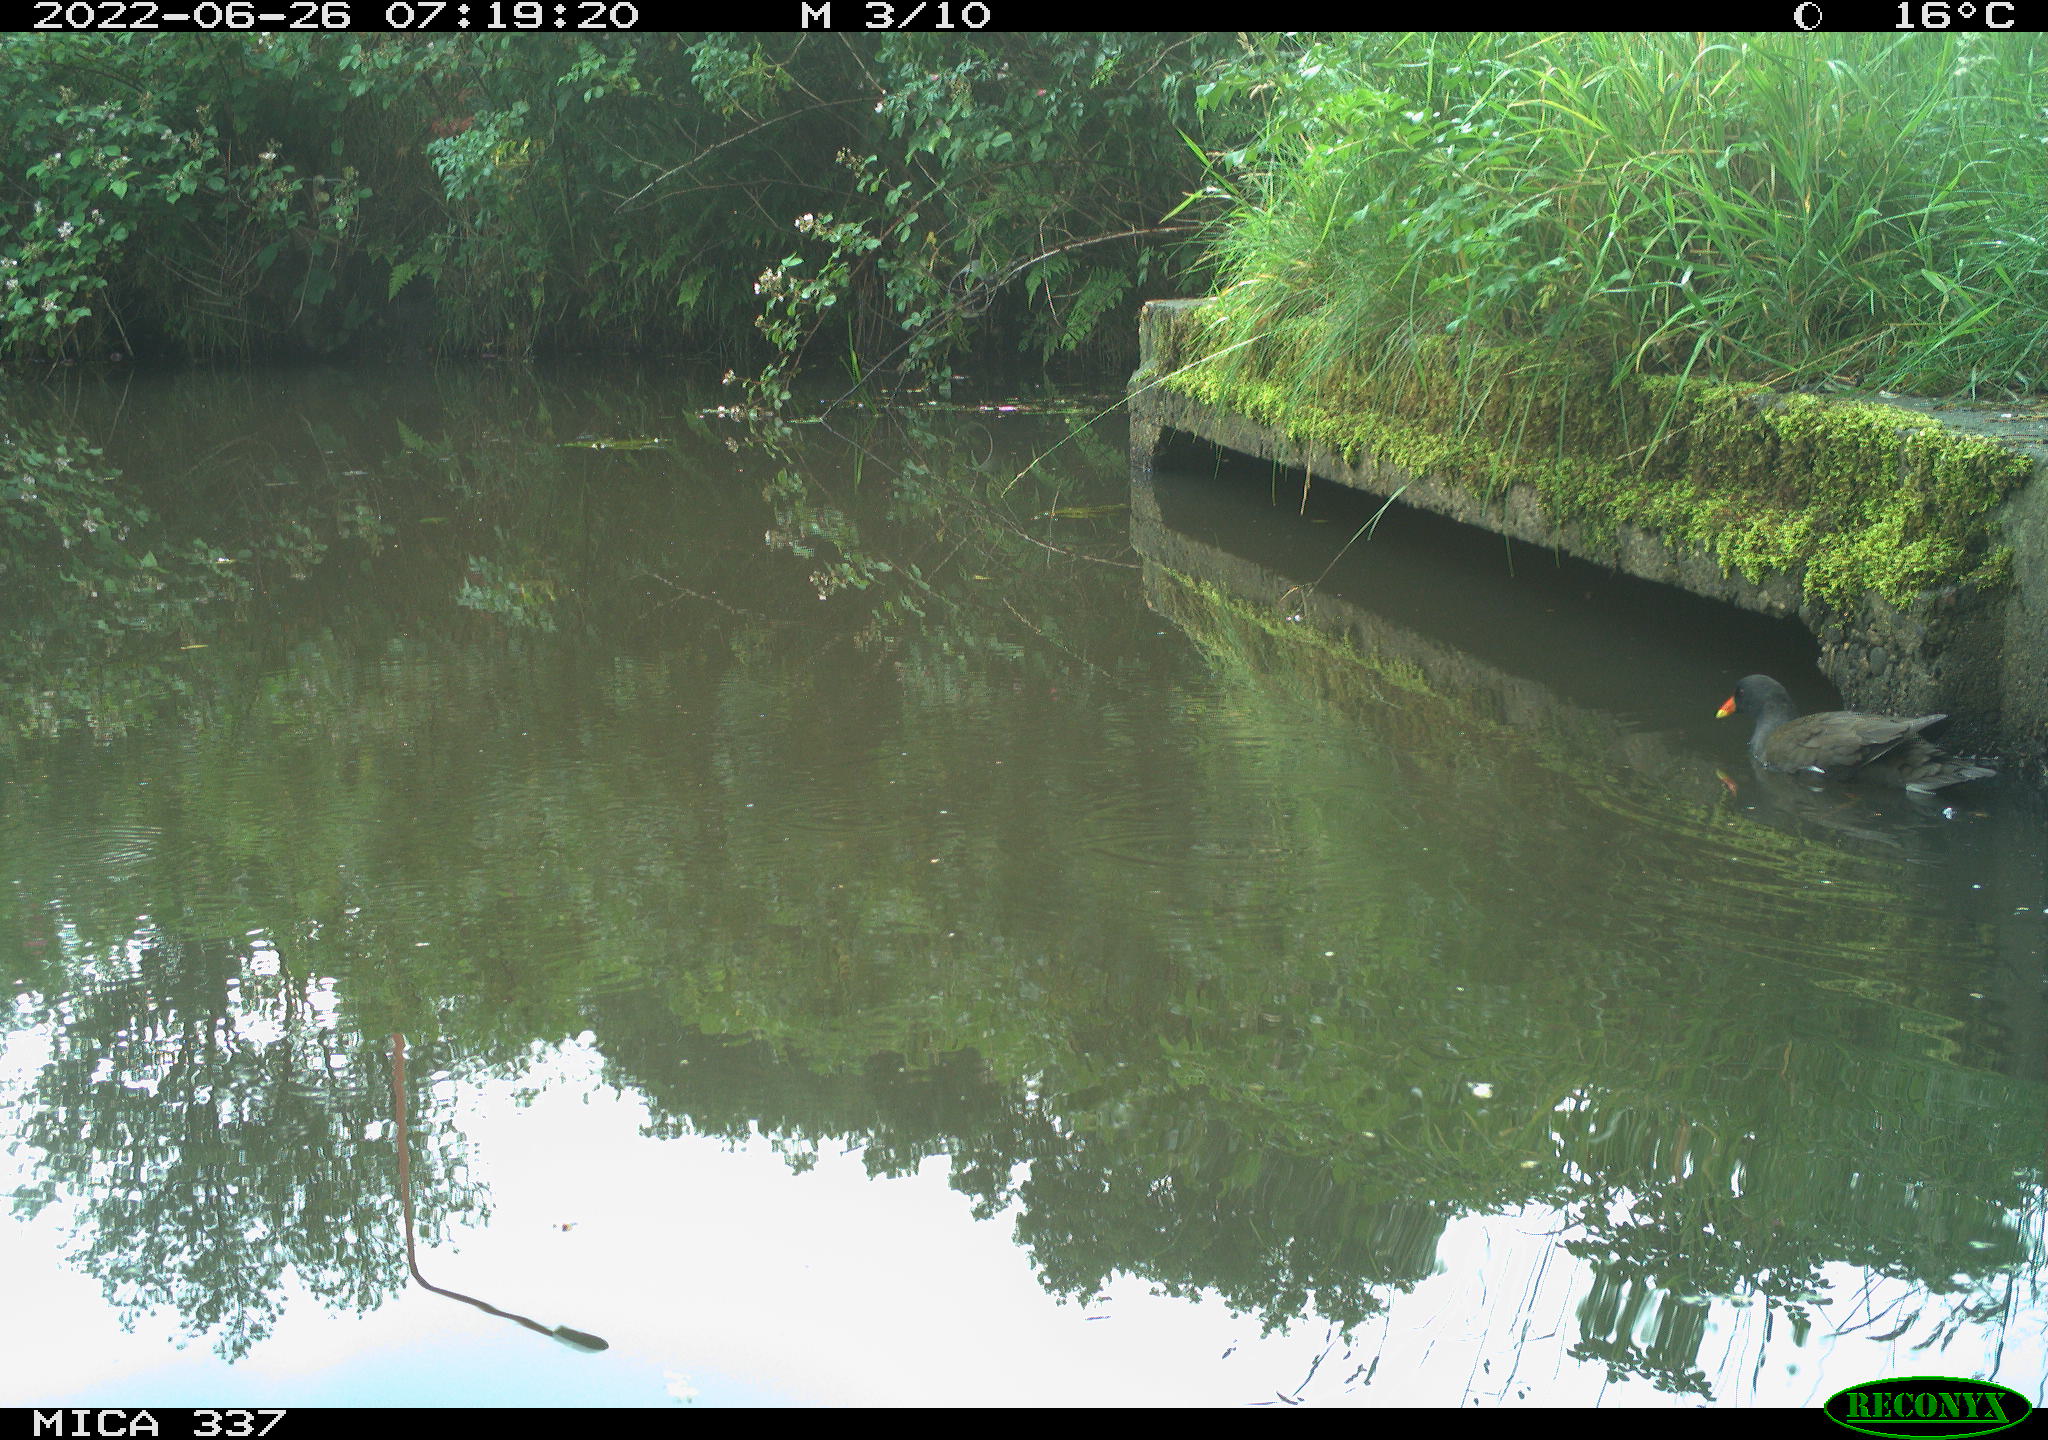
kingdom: Animalia
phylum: Chordata
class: Aves
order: Gruiformes
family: Rallidae
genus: Gallinula
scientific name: Gallinula chloropus
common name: Common moorhen
